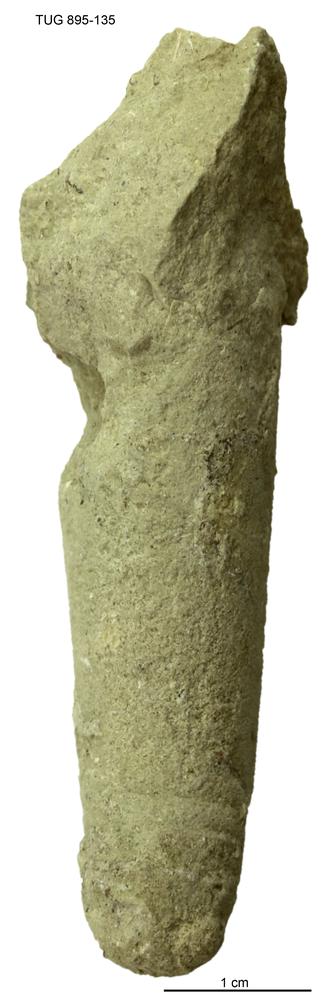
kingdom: Animalia
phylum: Mollusca
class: Cephalopoda
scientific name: Cephalopoda
